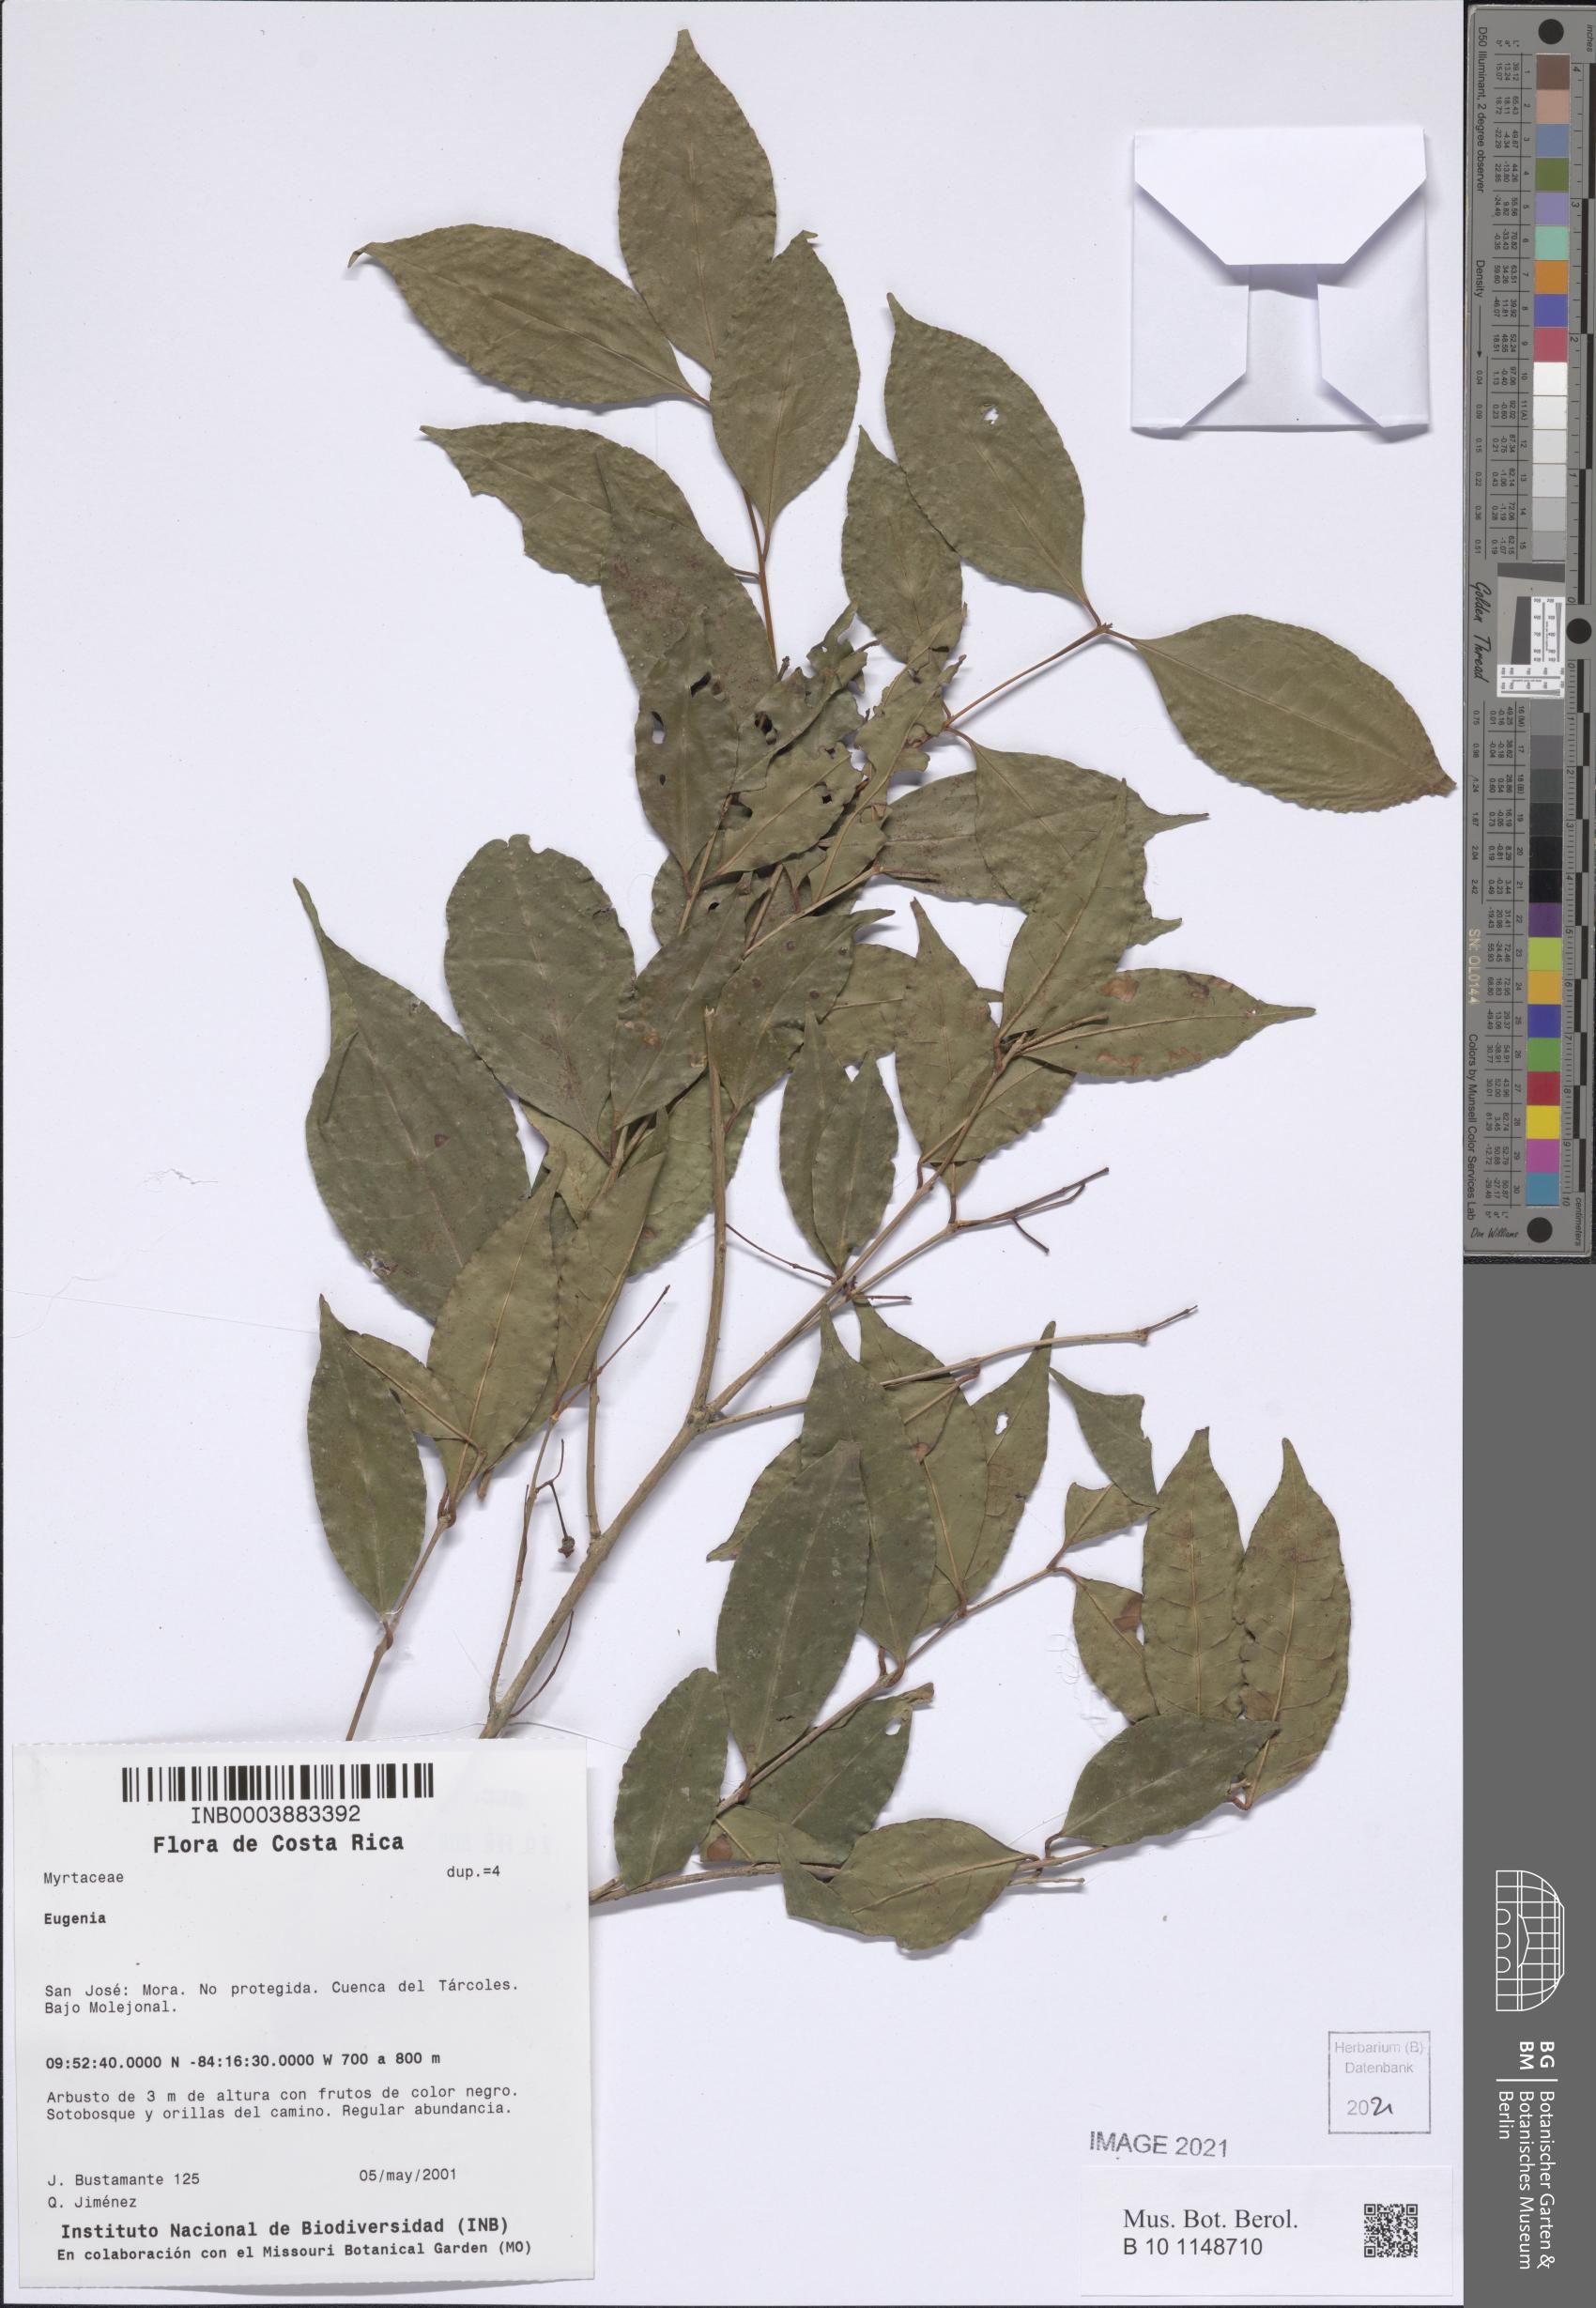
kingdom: Plantae
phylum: Tracheophyta
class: Magnoliopsida
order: Myrtales
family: Myrtaceae
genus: Eugenia
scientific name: Eugenia
